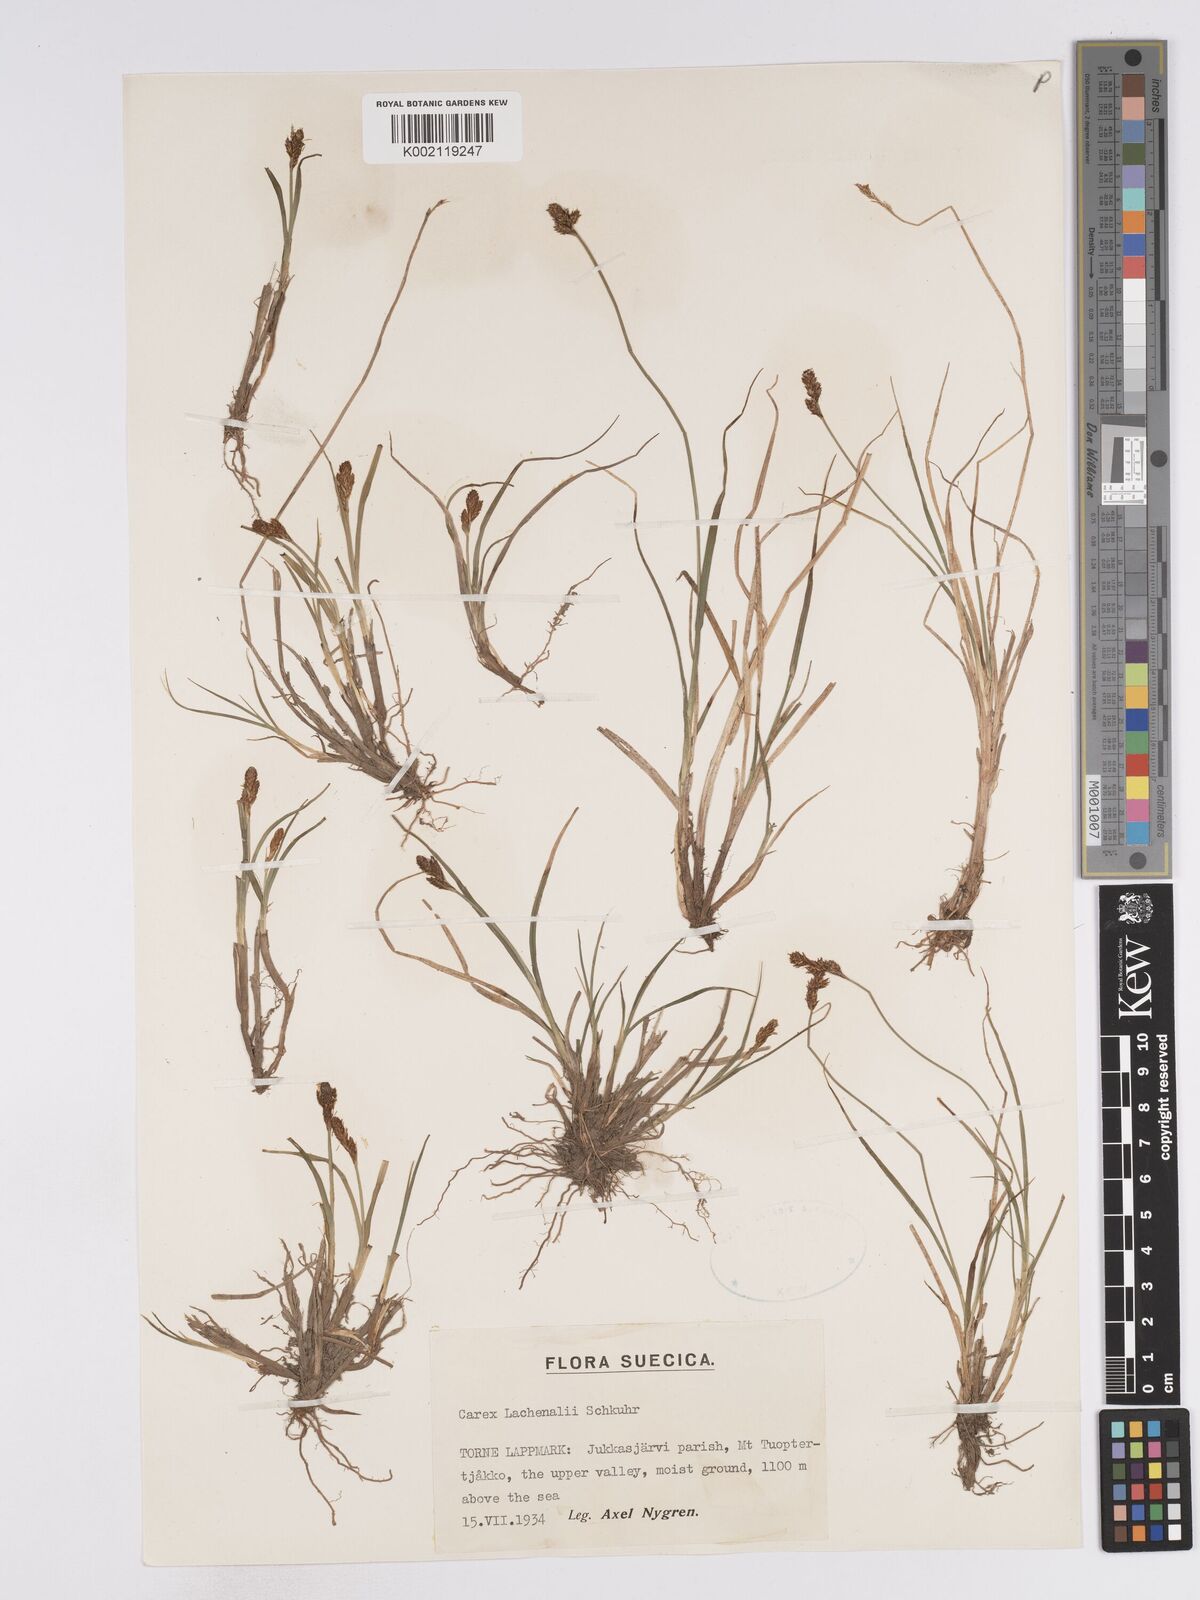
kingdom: Plantae
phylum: Tracheophyta
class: Liliopsida
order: Poales
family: Cyperaceae
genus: Carex
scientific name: Carex lachenalii
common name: Hare's-foot sedge
